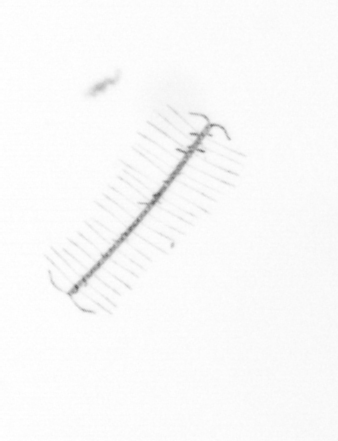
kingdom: Chromista
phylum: Ochrophyta
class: Bacillariophyceae
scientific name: Bacillariophyceae
